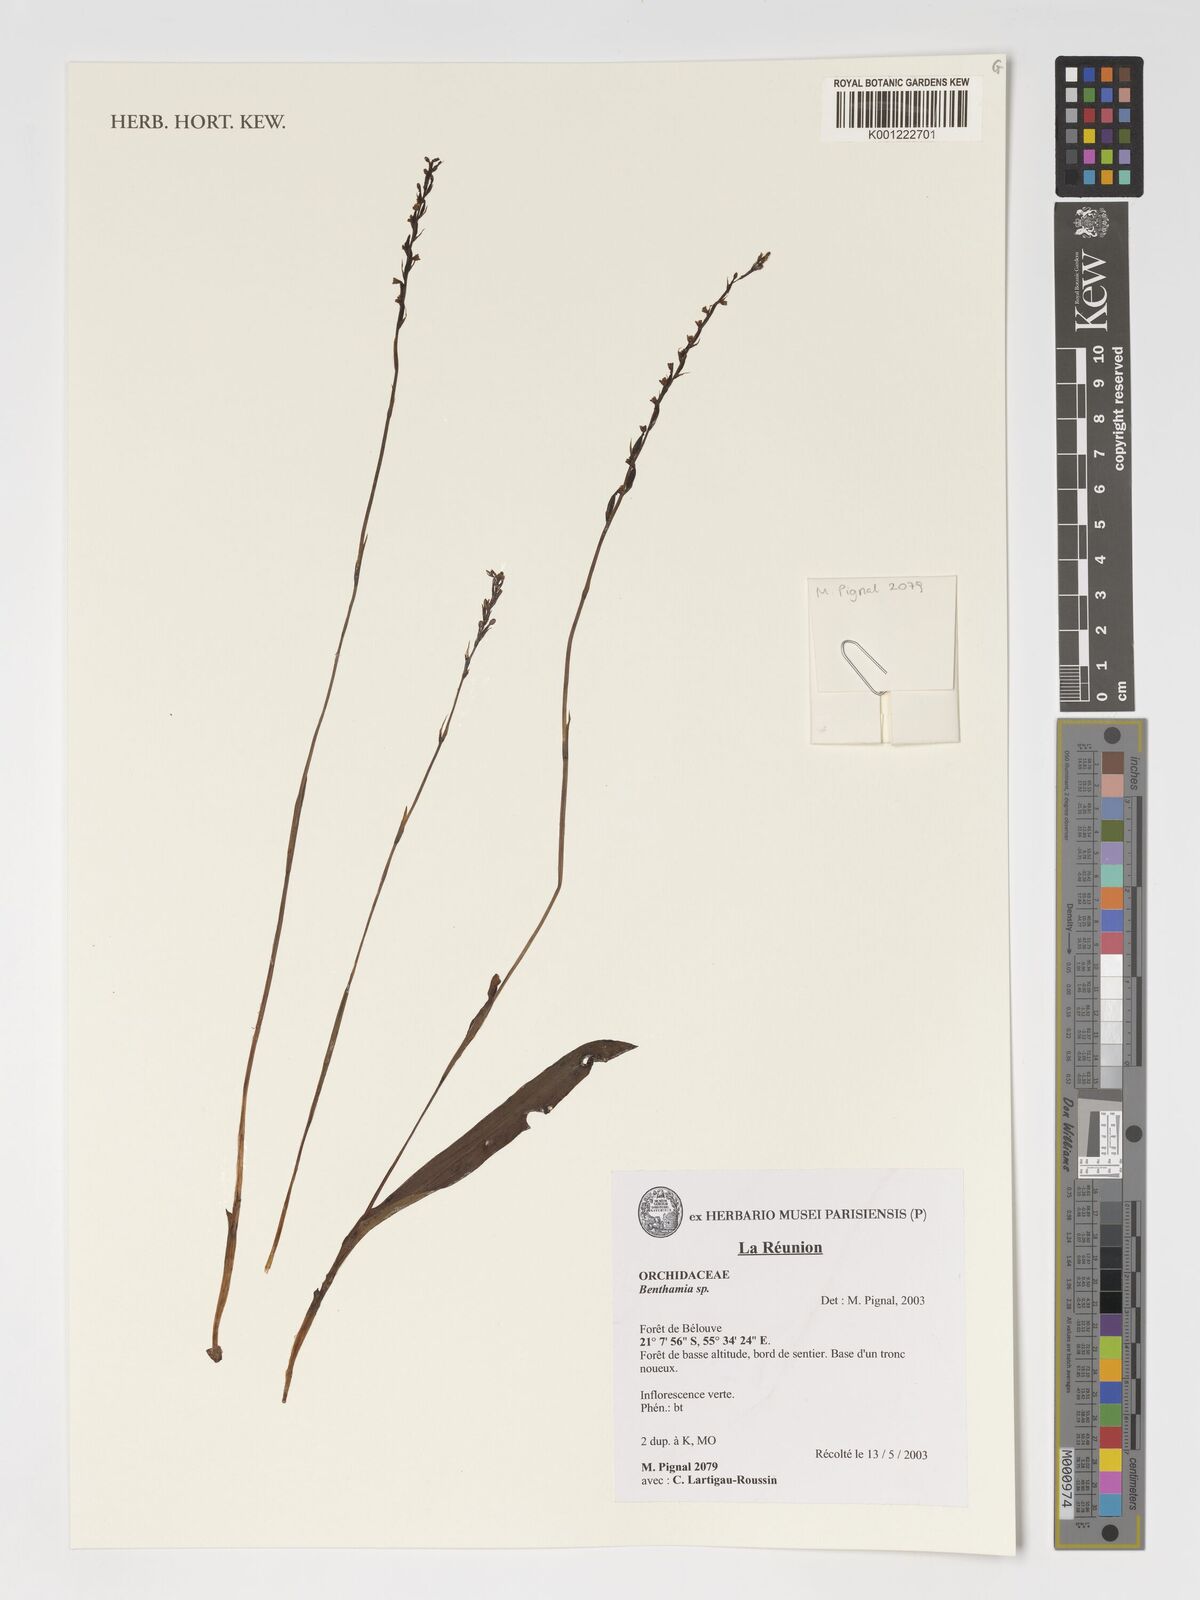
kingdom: Plantae
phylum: Tracheophyta
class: Liliopsida
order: Asparagales
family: Orchidaceae
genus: Benthamia
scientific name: Benthamia
